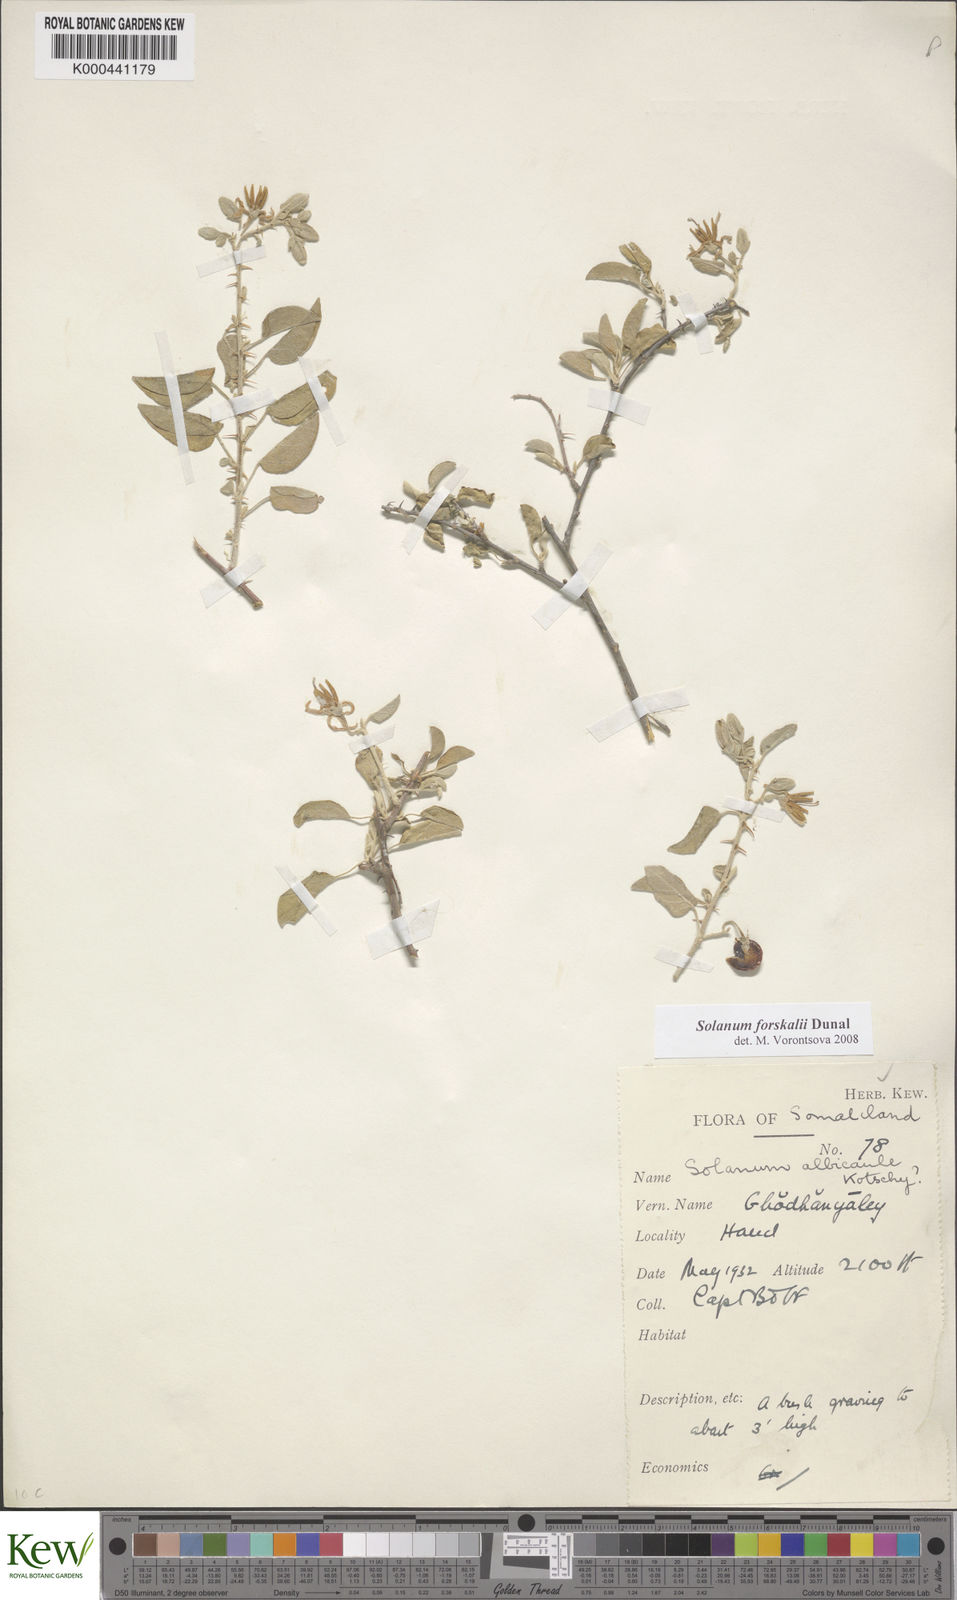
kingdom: Plantae
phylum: Tracheophyta
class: Magnoliopsida
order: Solanales
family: Solanaceae
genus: Solanum
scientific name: Solanum
